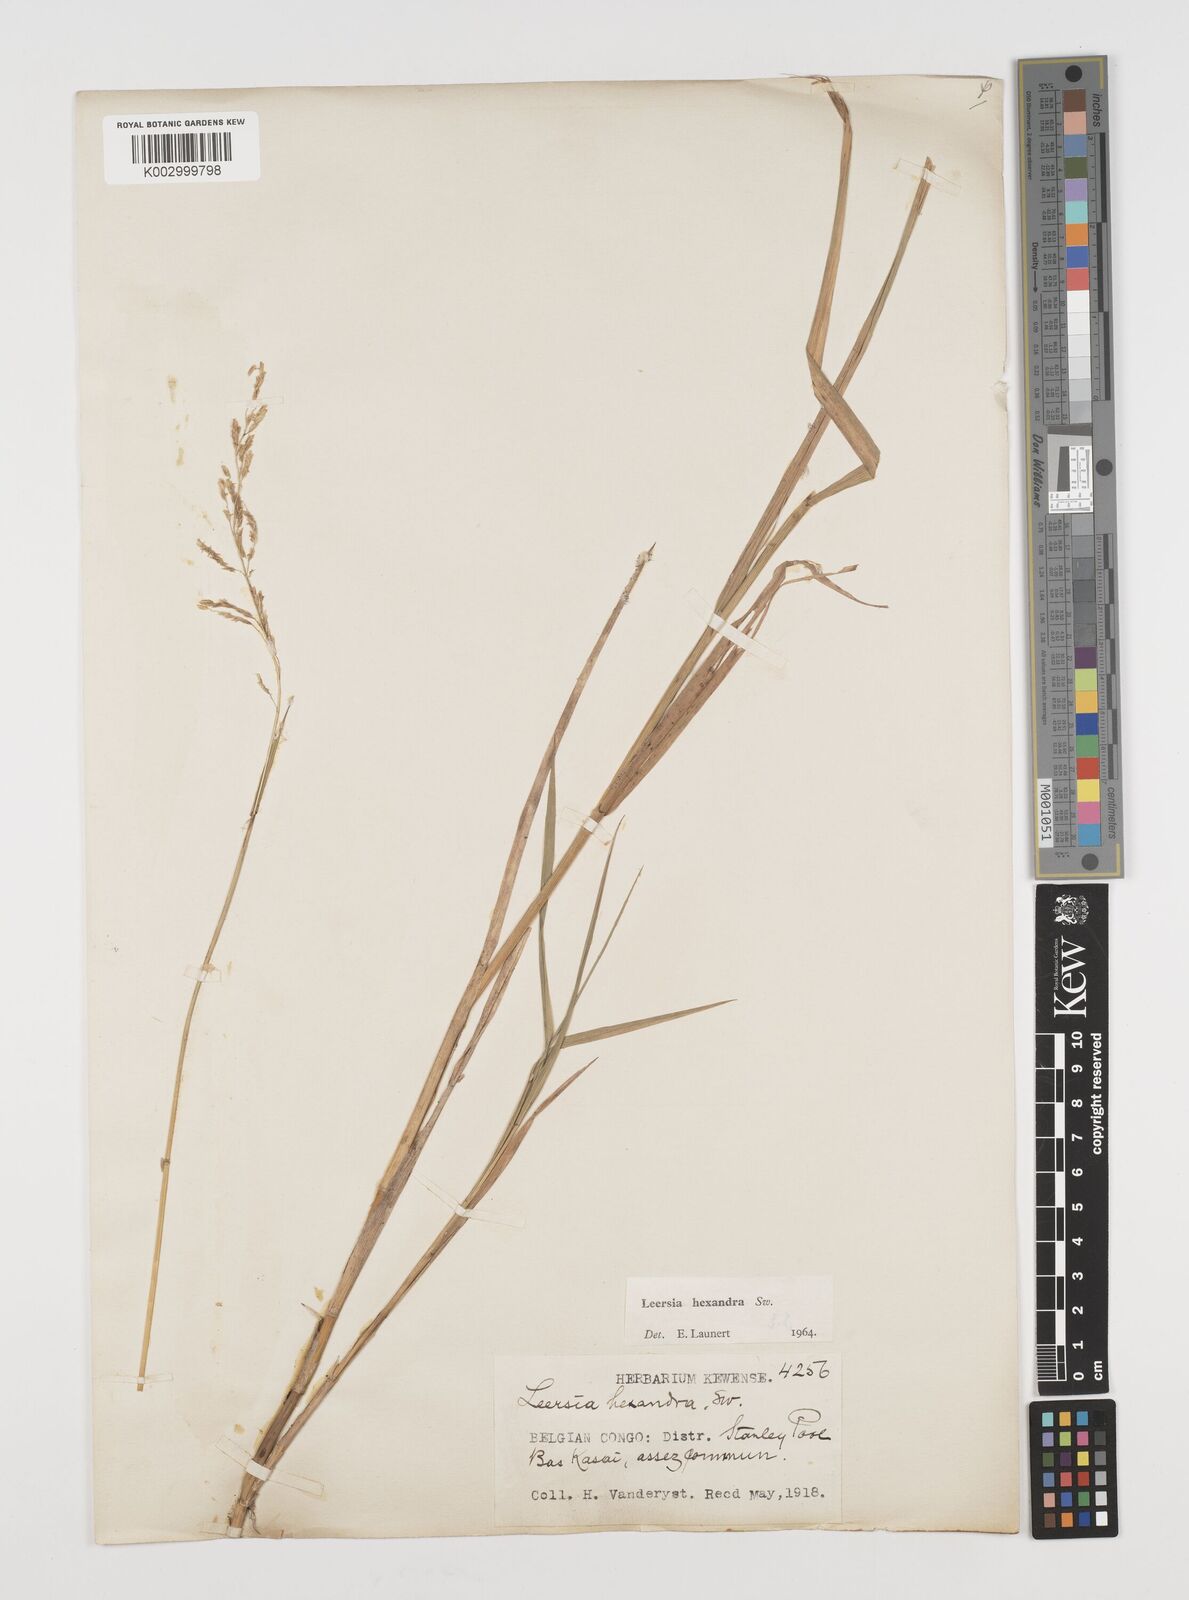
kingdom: Plantae
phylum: Tracheophyta
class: Liliopsida
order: Poales
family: Poaceae
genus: Leersia
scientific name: Leersia hexandra
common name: Southern cut grass
